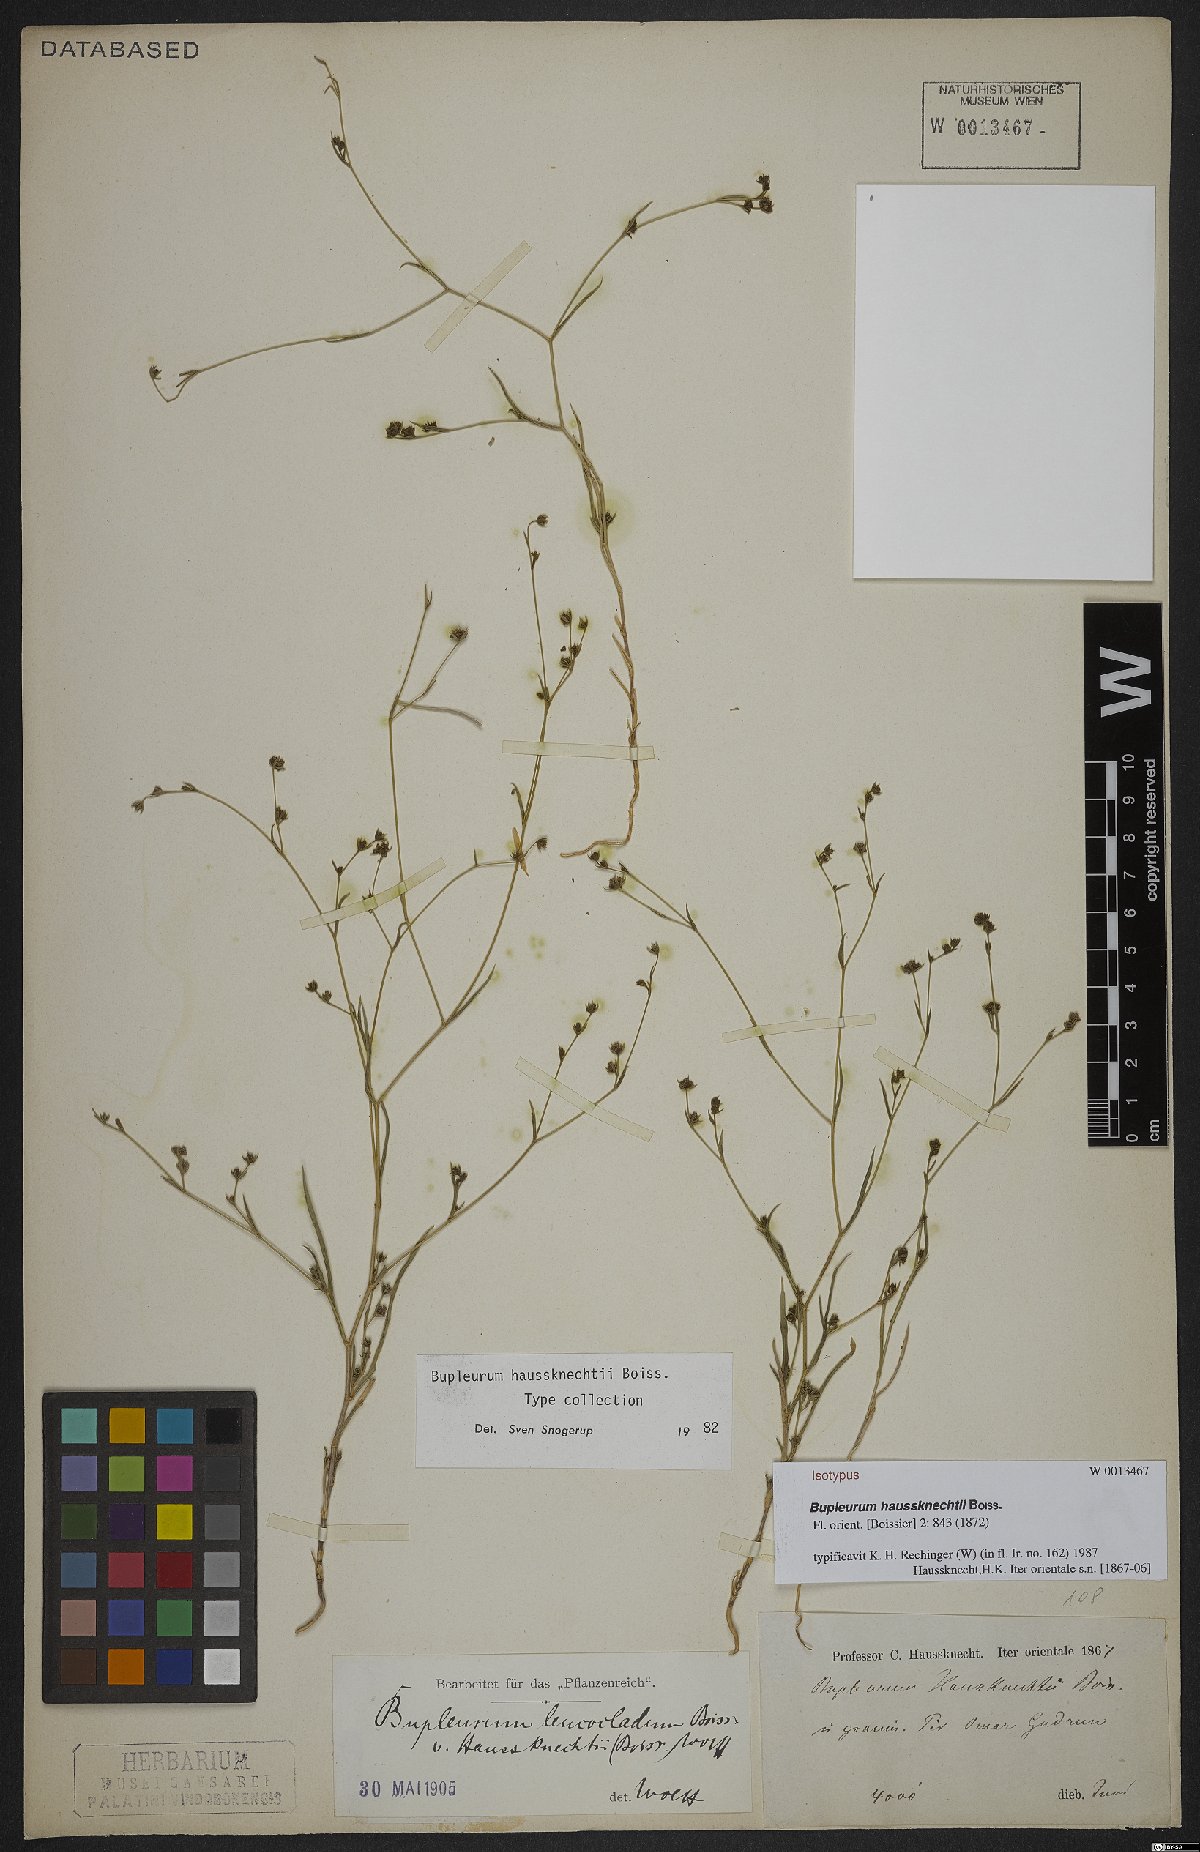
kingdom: Plantae
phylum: Tracheophyta
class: Magnoliopsida
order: Apiales
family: Apiaceae
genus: Bupleurum
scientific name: Bupleurum haussknechtii
